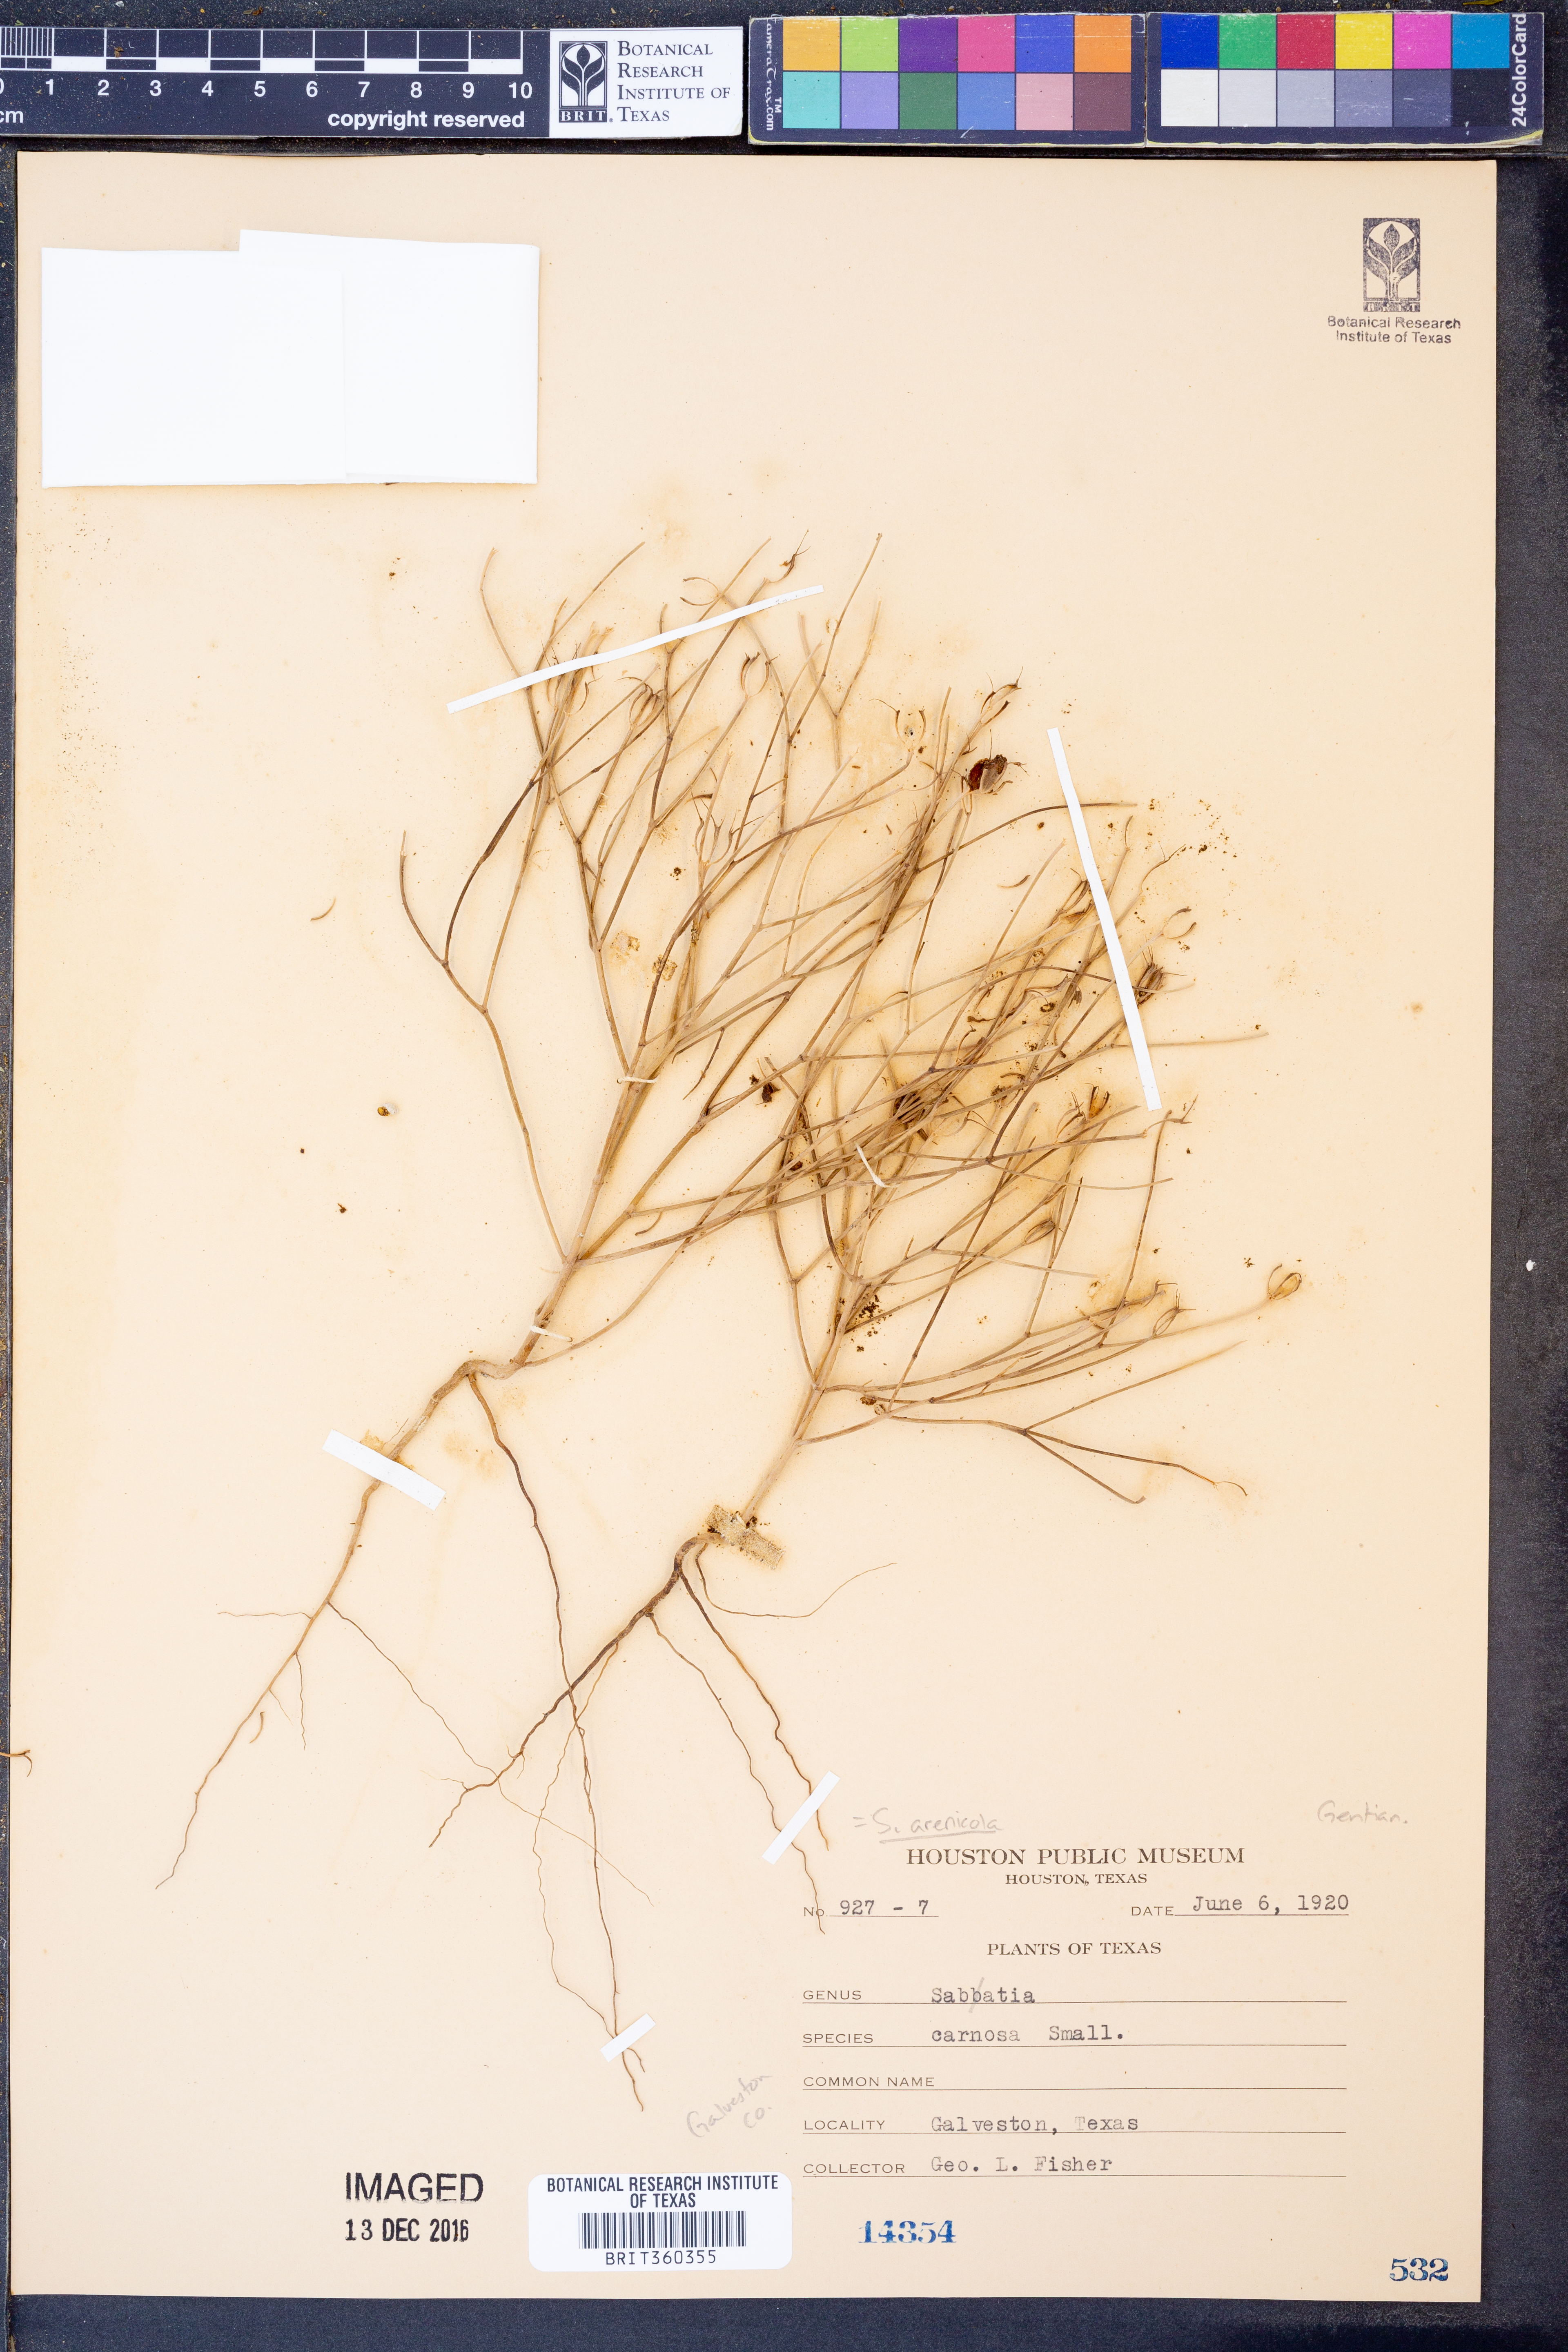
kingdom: Plantae
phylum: Tracheophyta
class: Magnoliopsida
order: Gentianales
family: Gentianaceae
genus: Sabatia
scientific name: Sabatia arenicola
